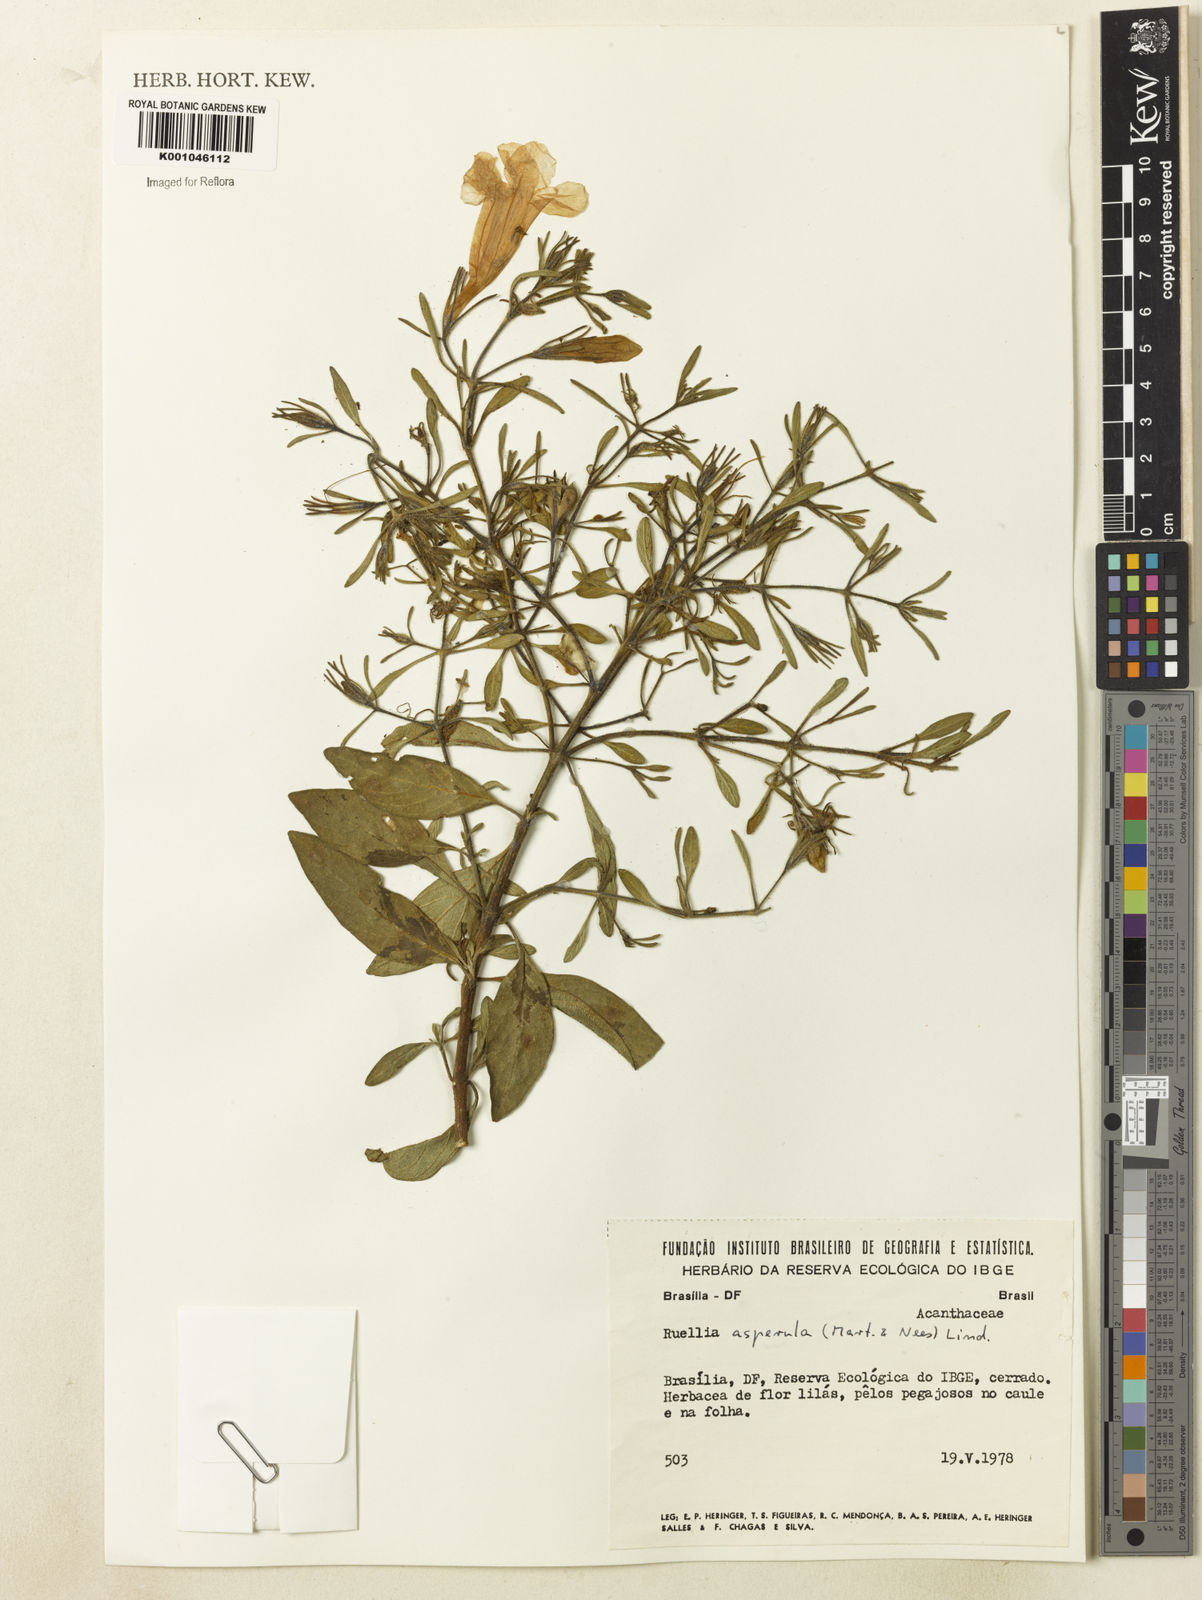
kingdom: Plantae
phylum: Tracheophyta
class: Magnoliopsida
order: Lamiales
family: Acanthaceae
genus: Ruellia
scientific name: Ruellia
